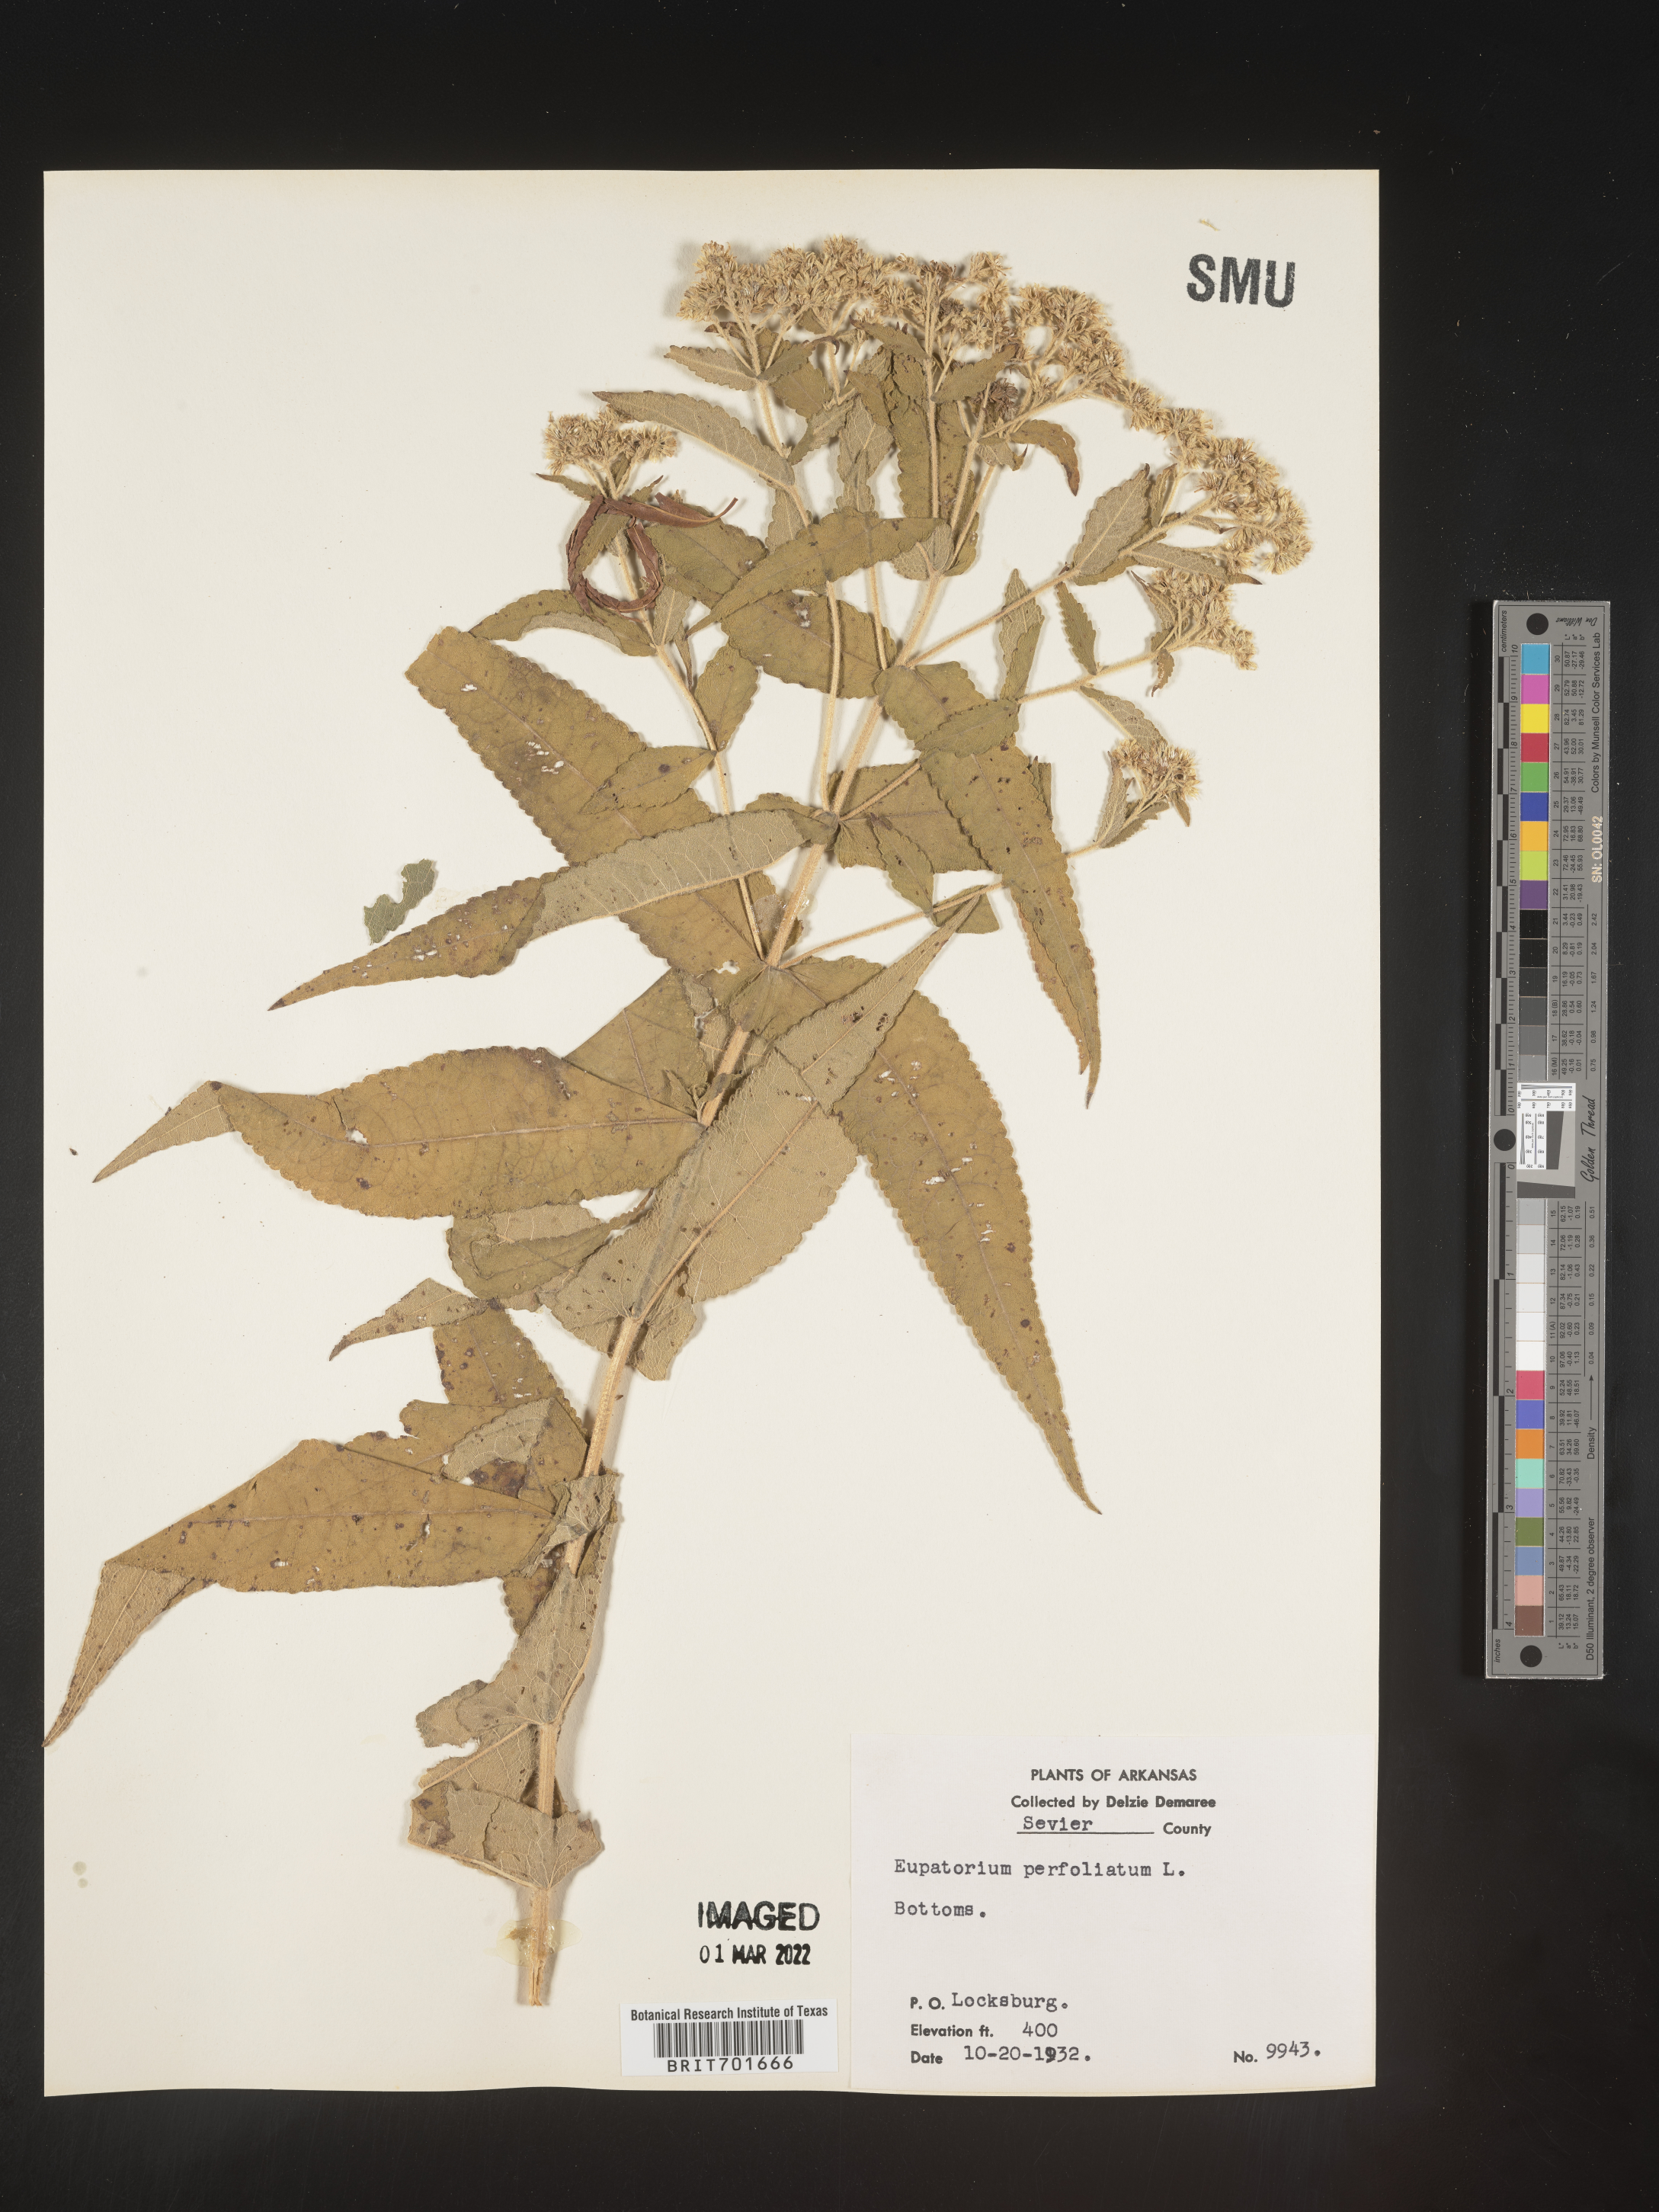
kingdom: Plantae
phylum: Tracheophyta
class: Magnoliopsida
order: Asterales
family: Asteraceae
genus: Eupatorium
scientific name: Eupatorium perfoliatum
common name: Boneset
